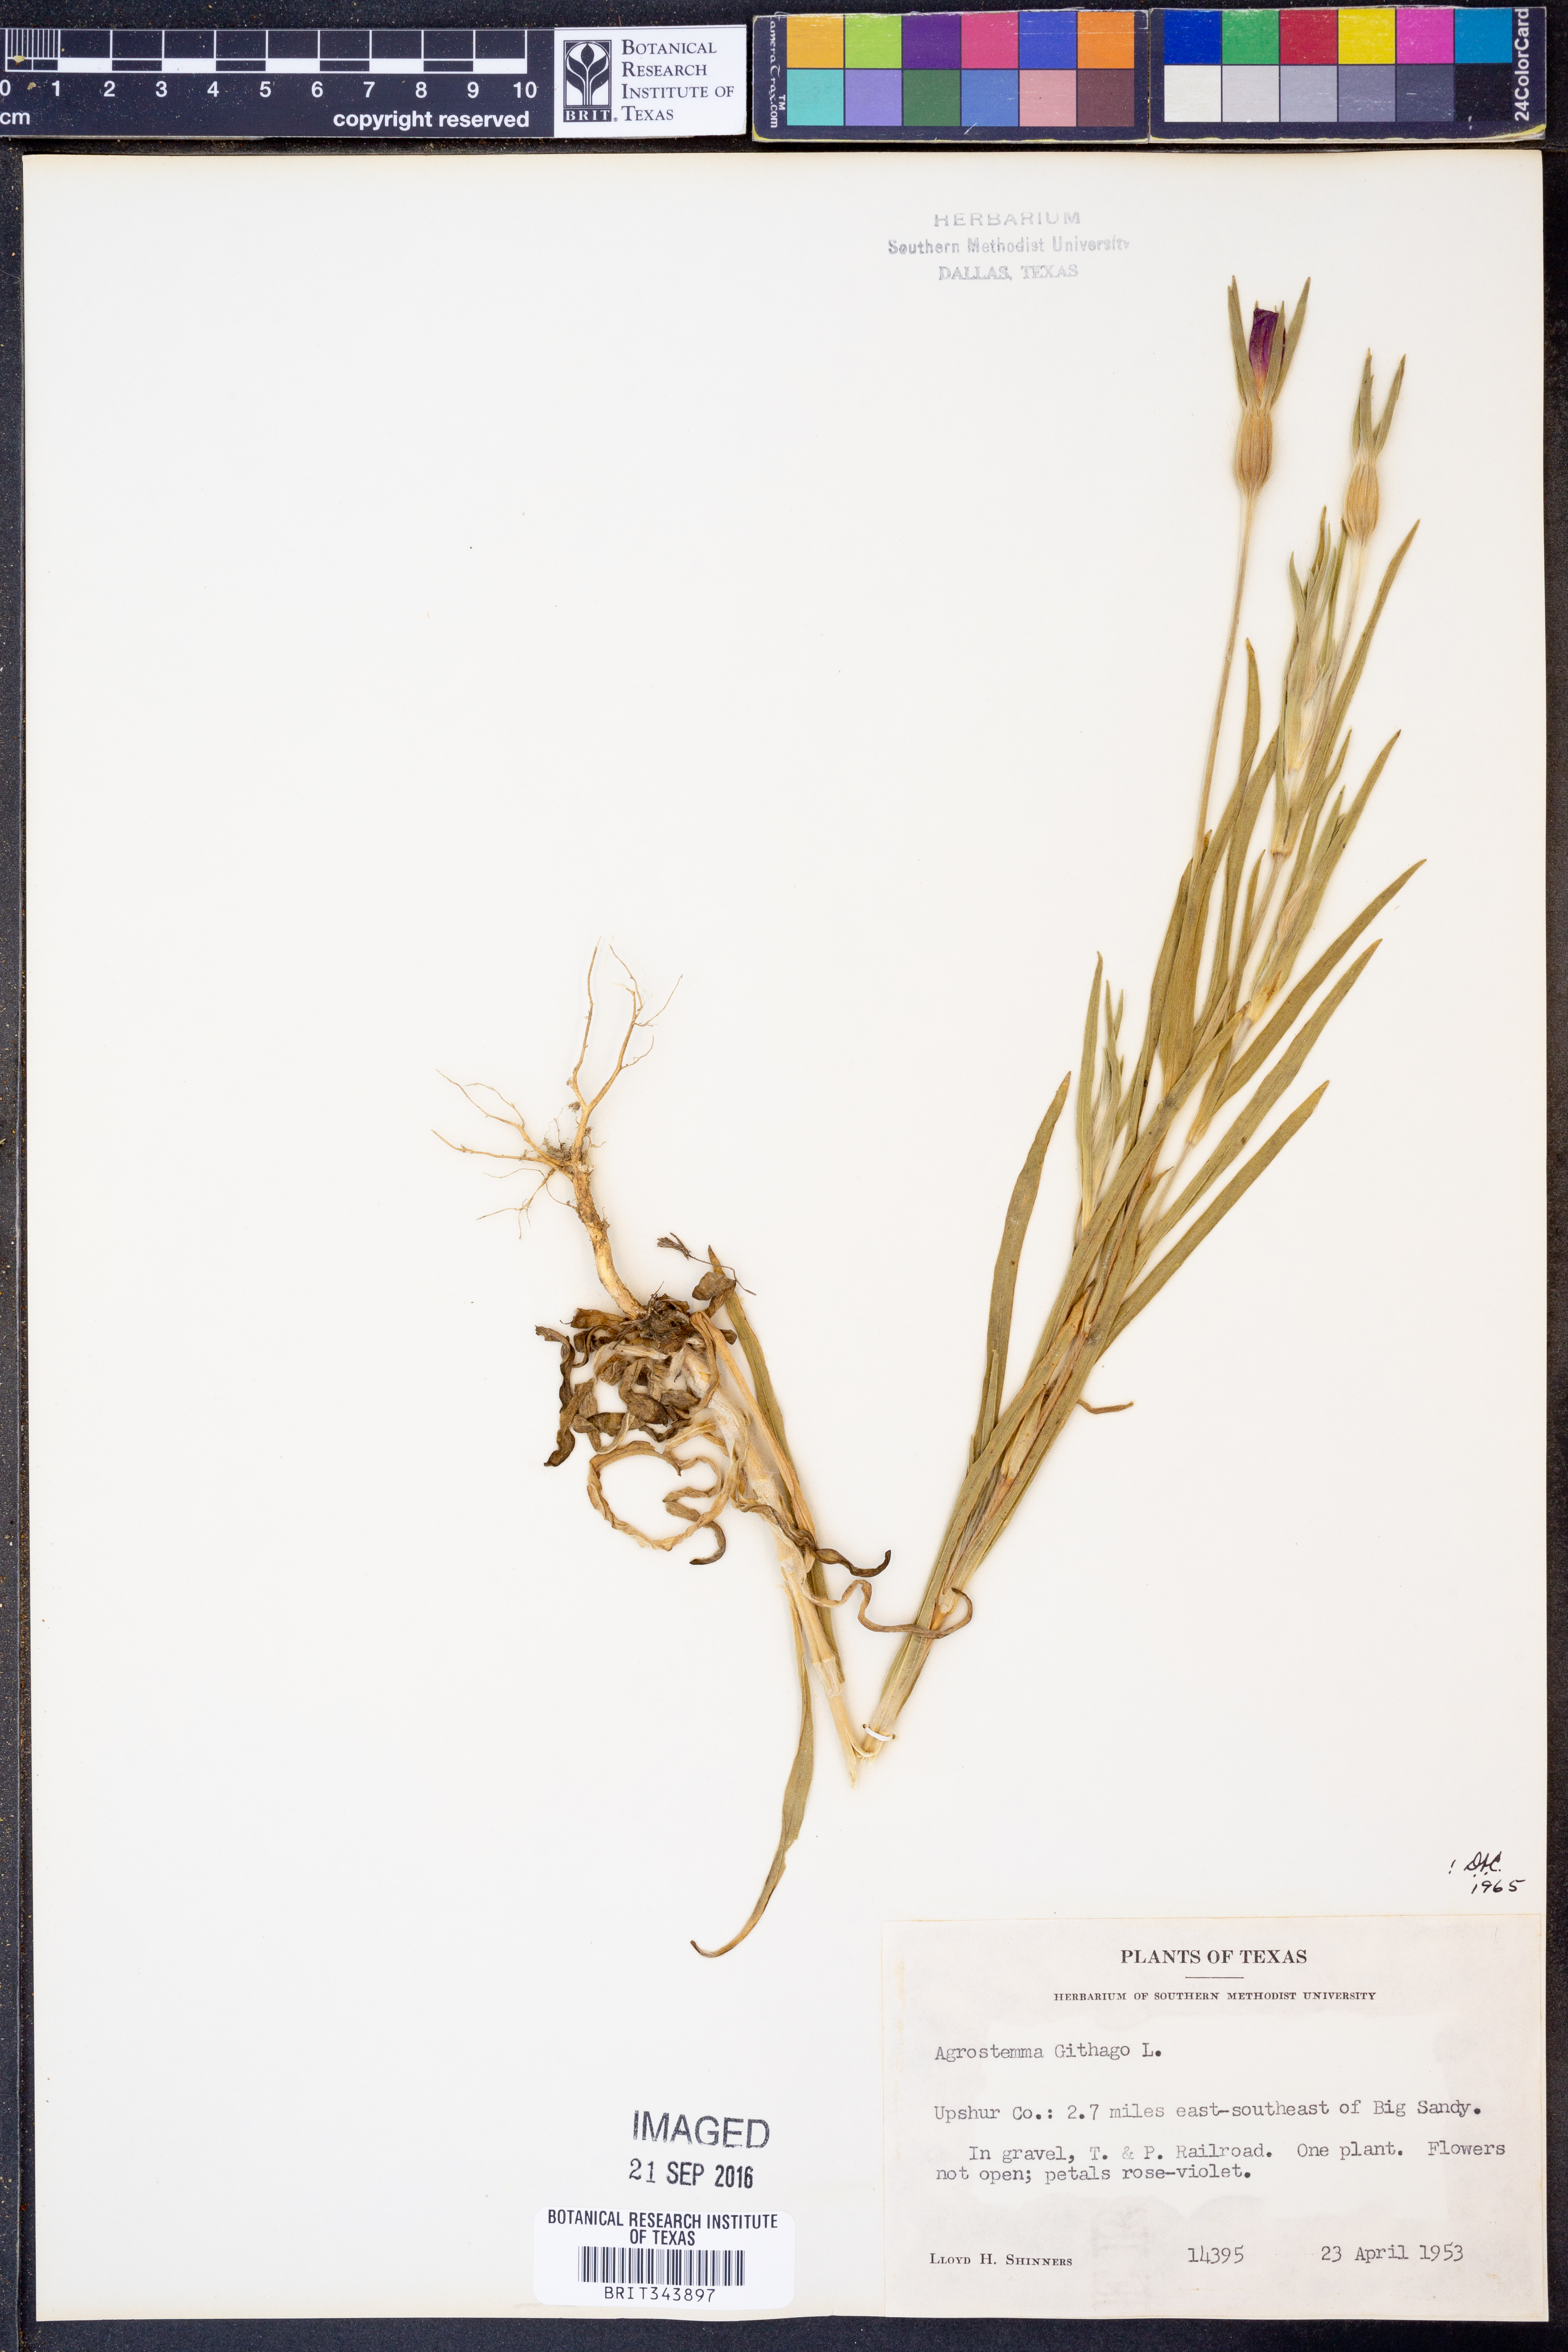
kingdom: Plantae
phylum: Tracheophyta
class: Magnoliopsida
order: Caryophyllales
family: Caryophyllaceae
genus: Agrostemma
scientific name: Agrostemma githago
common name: Common corncockle
